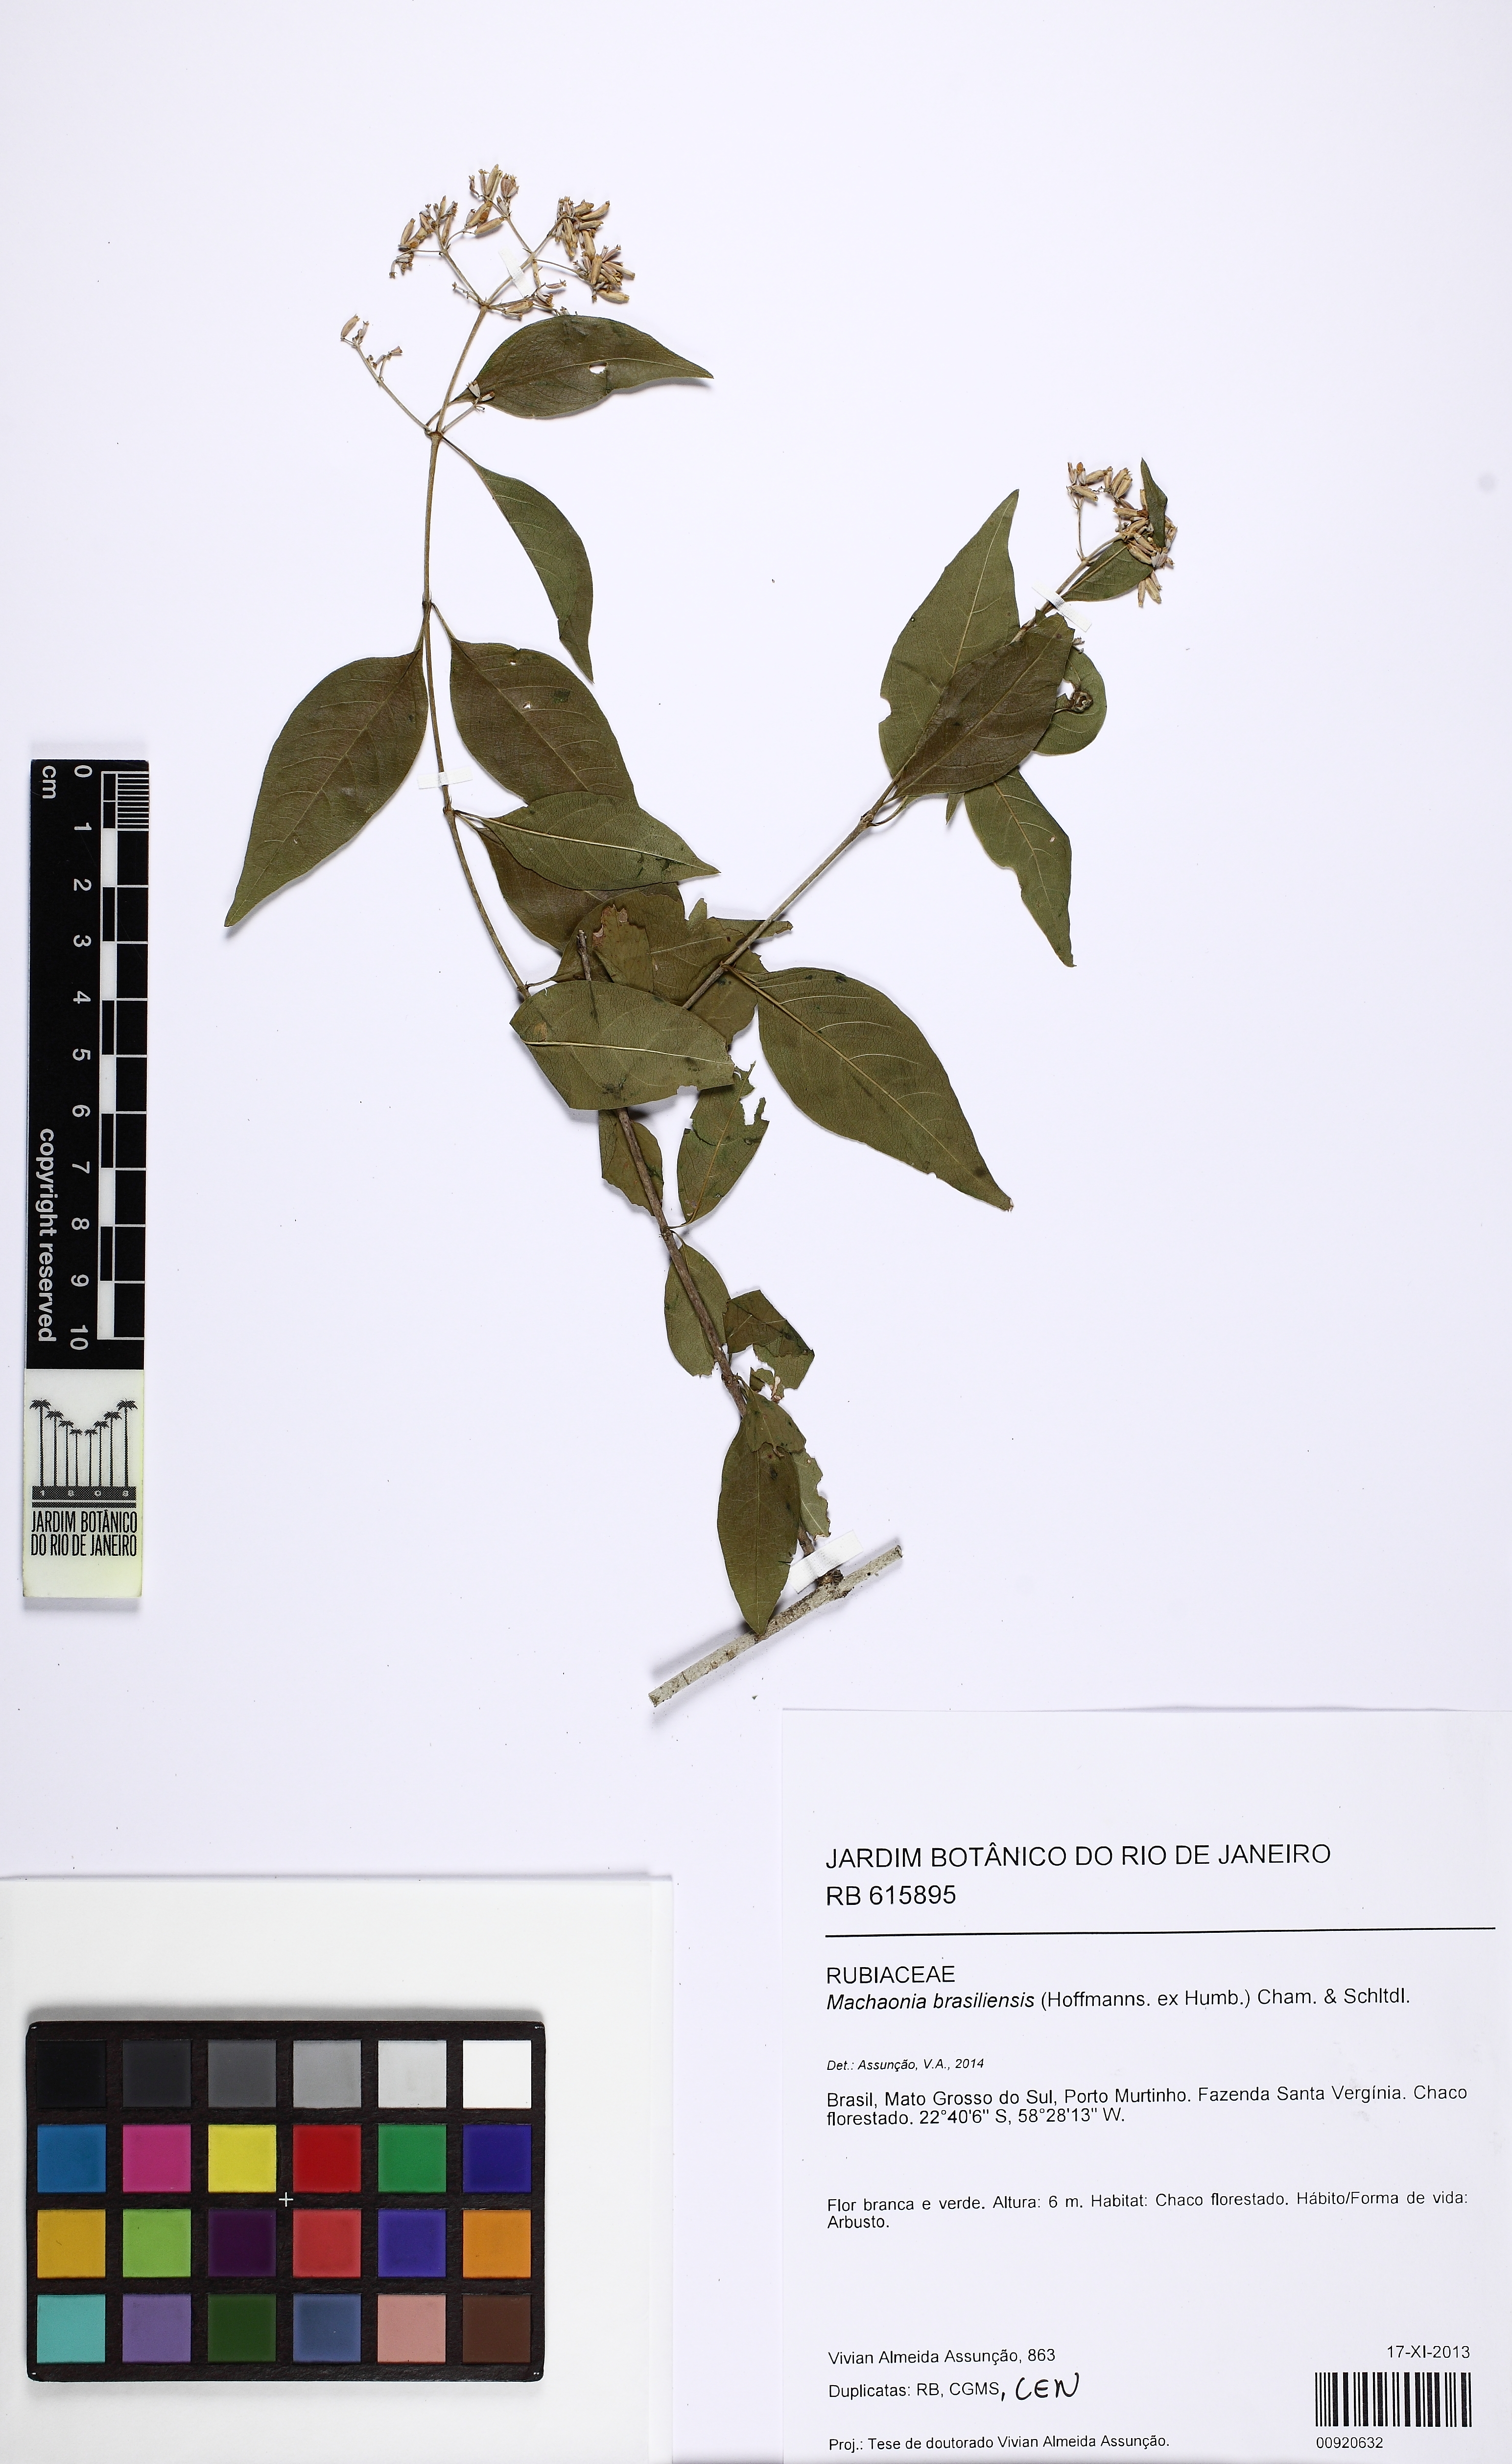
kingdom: Plantae
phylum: Tracheophyta
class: Magnoliopsida
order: Gentianales
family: Rubiaceae
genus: Machaonia
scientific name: Machaonia brasiliensis
